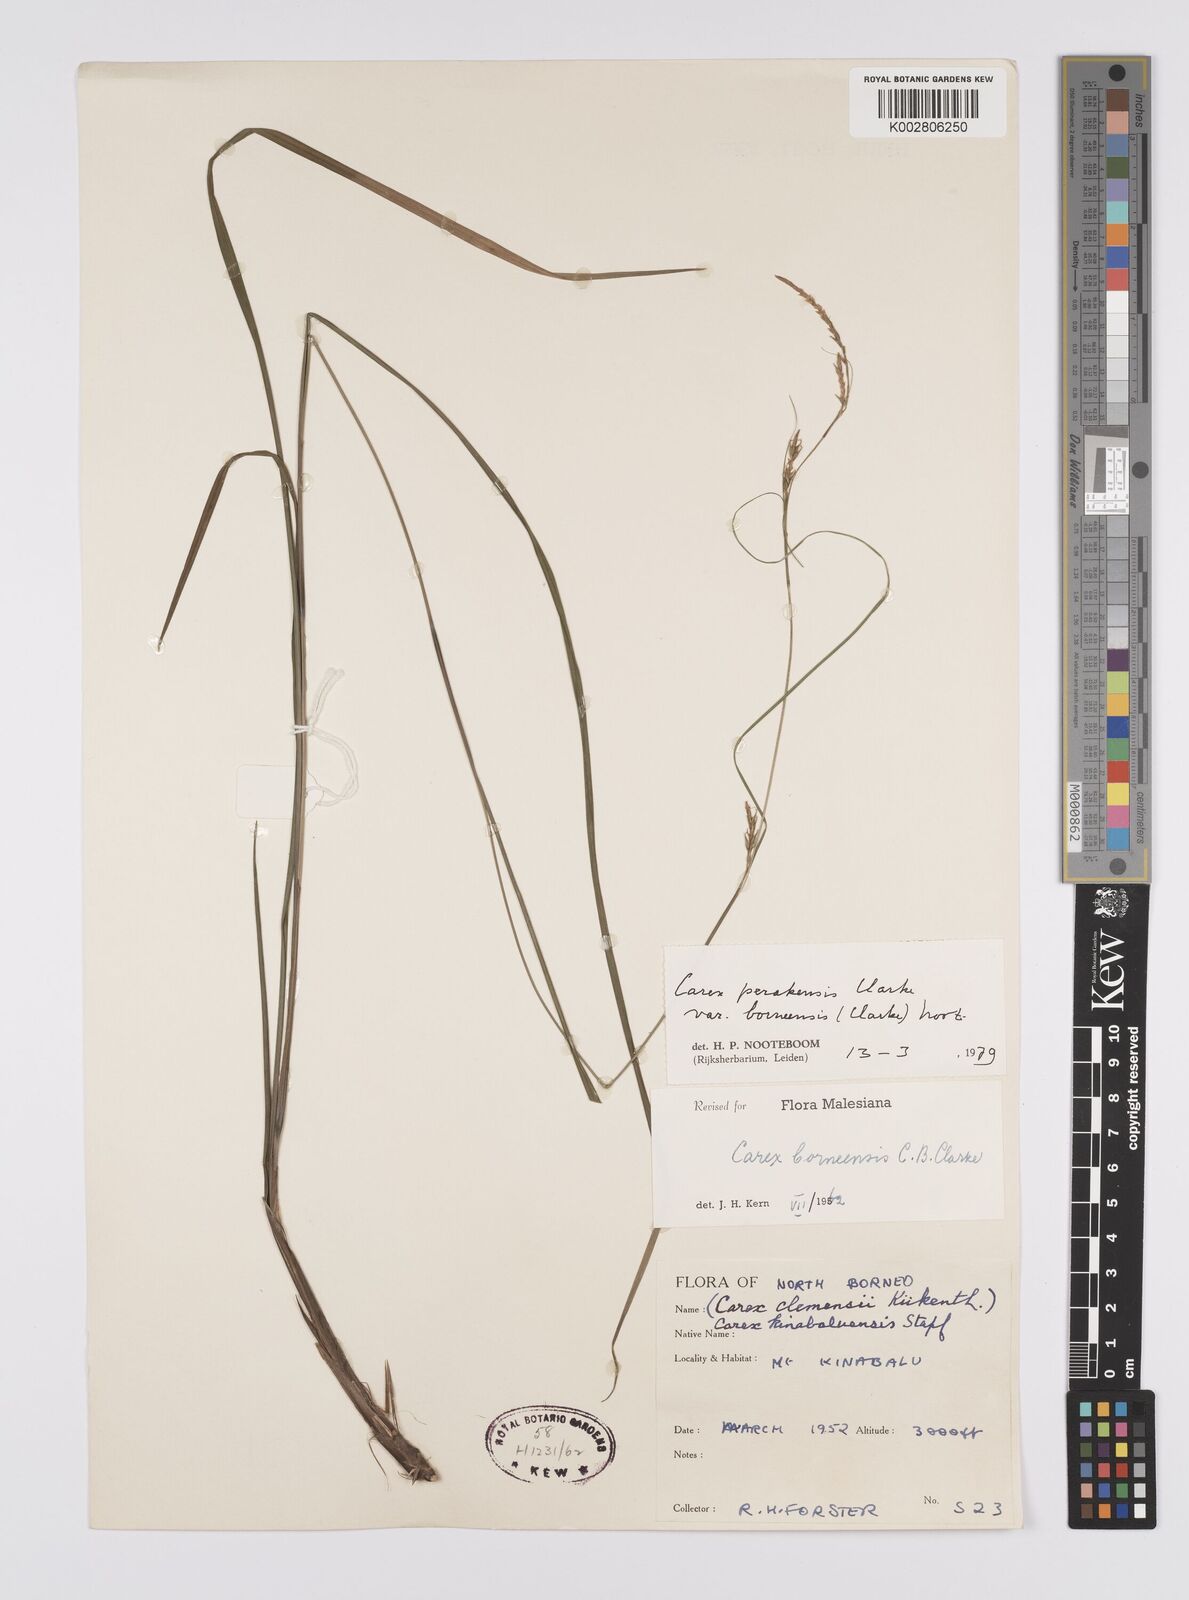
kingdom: Plantae
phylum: Tracheophyta
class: Liliopsida
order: Poales
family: Cyperaceae
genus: Carex
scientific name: Carex perakensis
